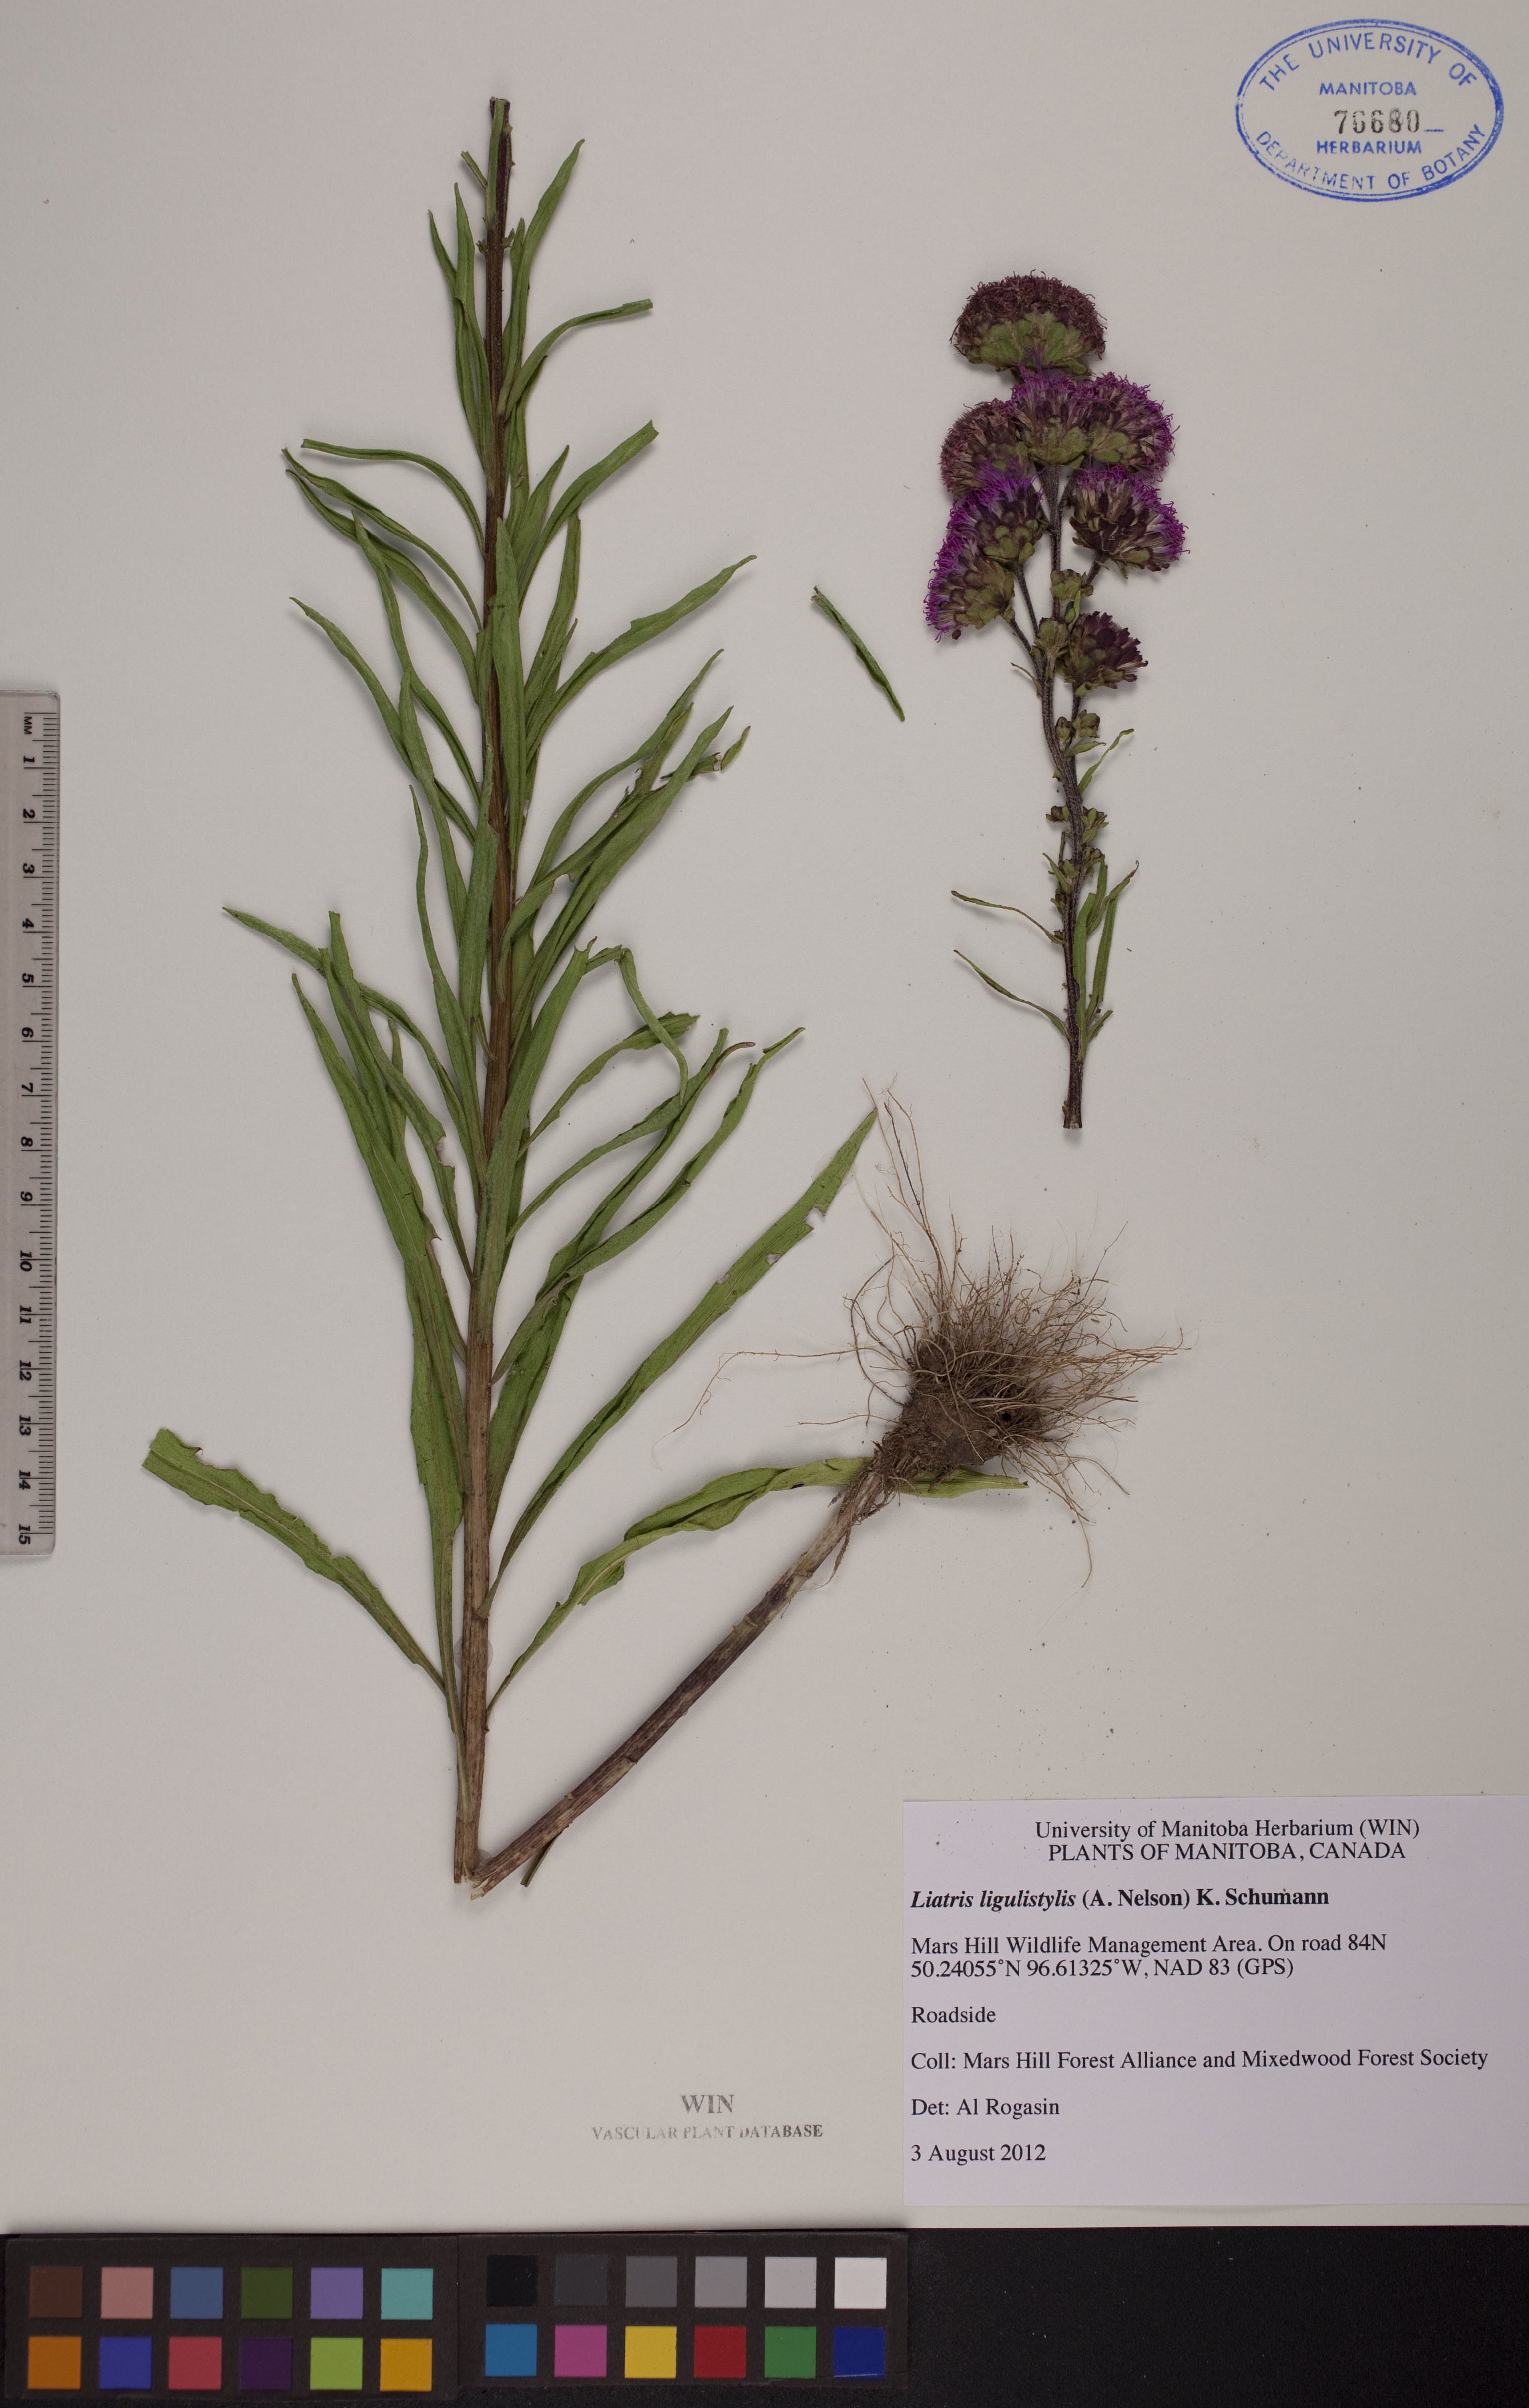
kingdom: Plantae
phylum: Tracheophyta
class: Magnoliopsida
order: Asterales
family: Asteraceae
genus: Liatris
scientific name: Liatris ligulistylis
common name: Northern plains gayfeather
